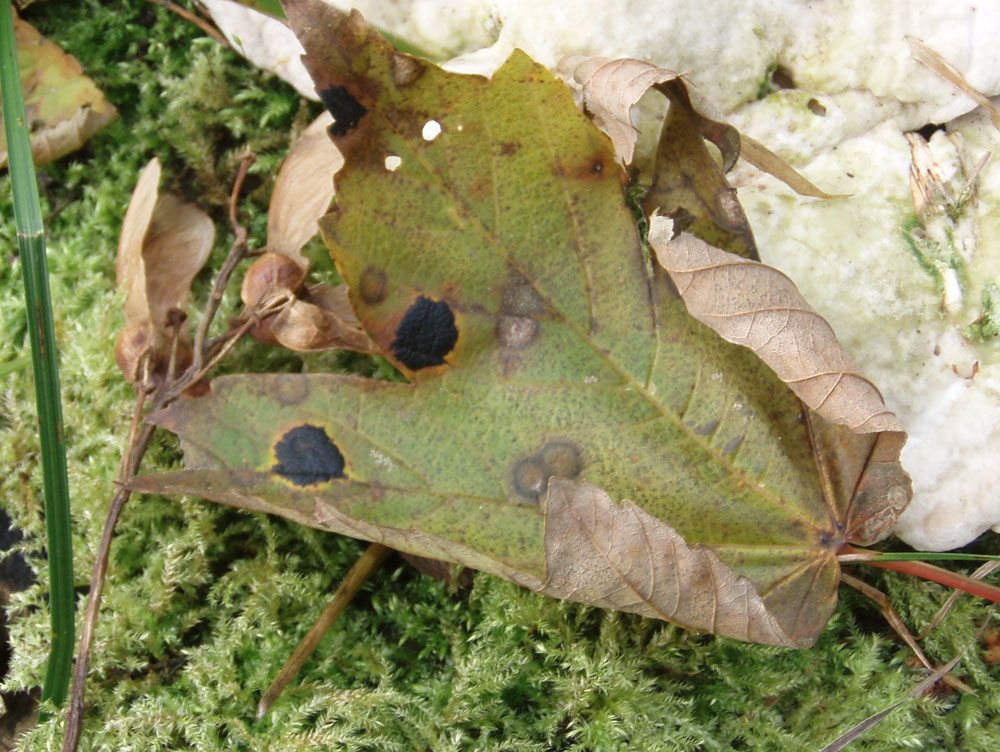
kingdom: Fungi
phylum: Ascomycota
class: Leotiomycetes
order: Rhytismatales
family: Rhytismataceae
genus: Rhytisma
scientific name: Rhytisma acerinum
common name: ahorn-rynkeplet
